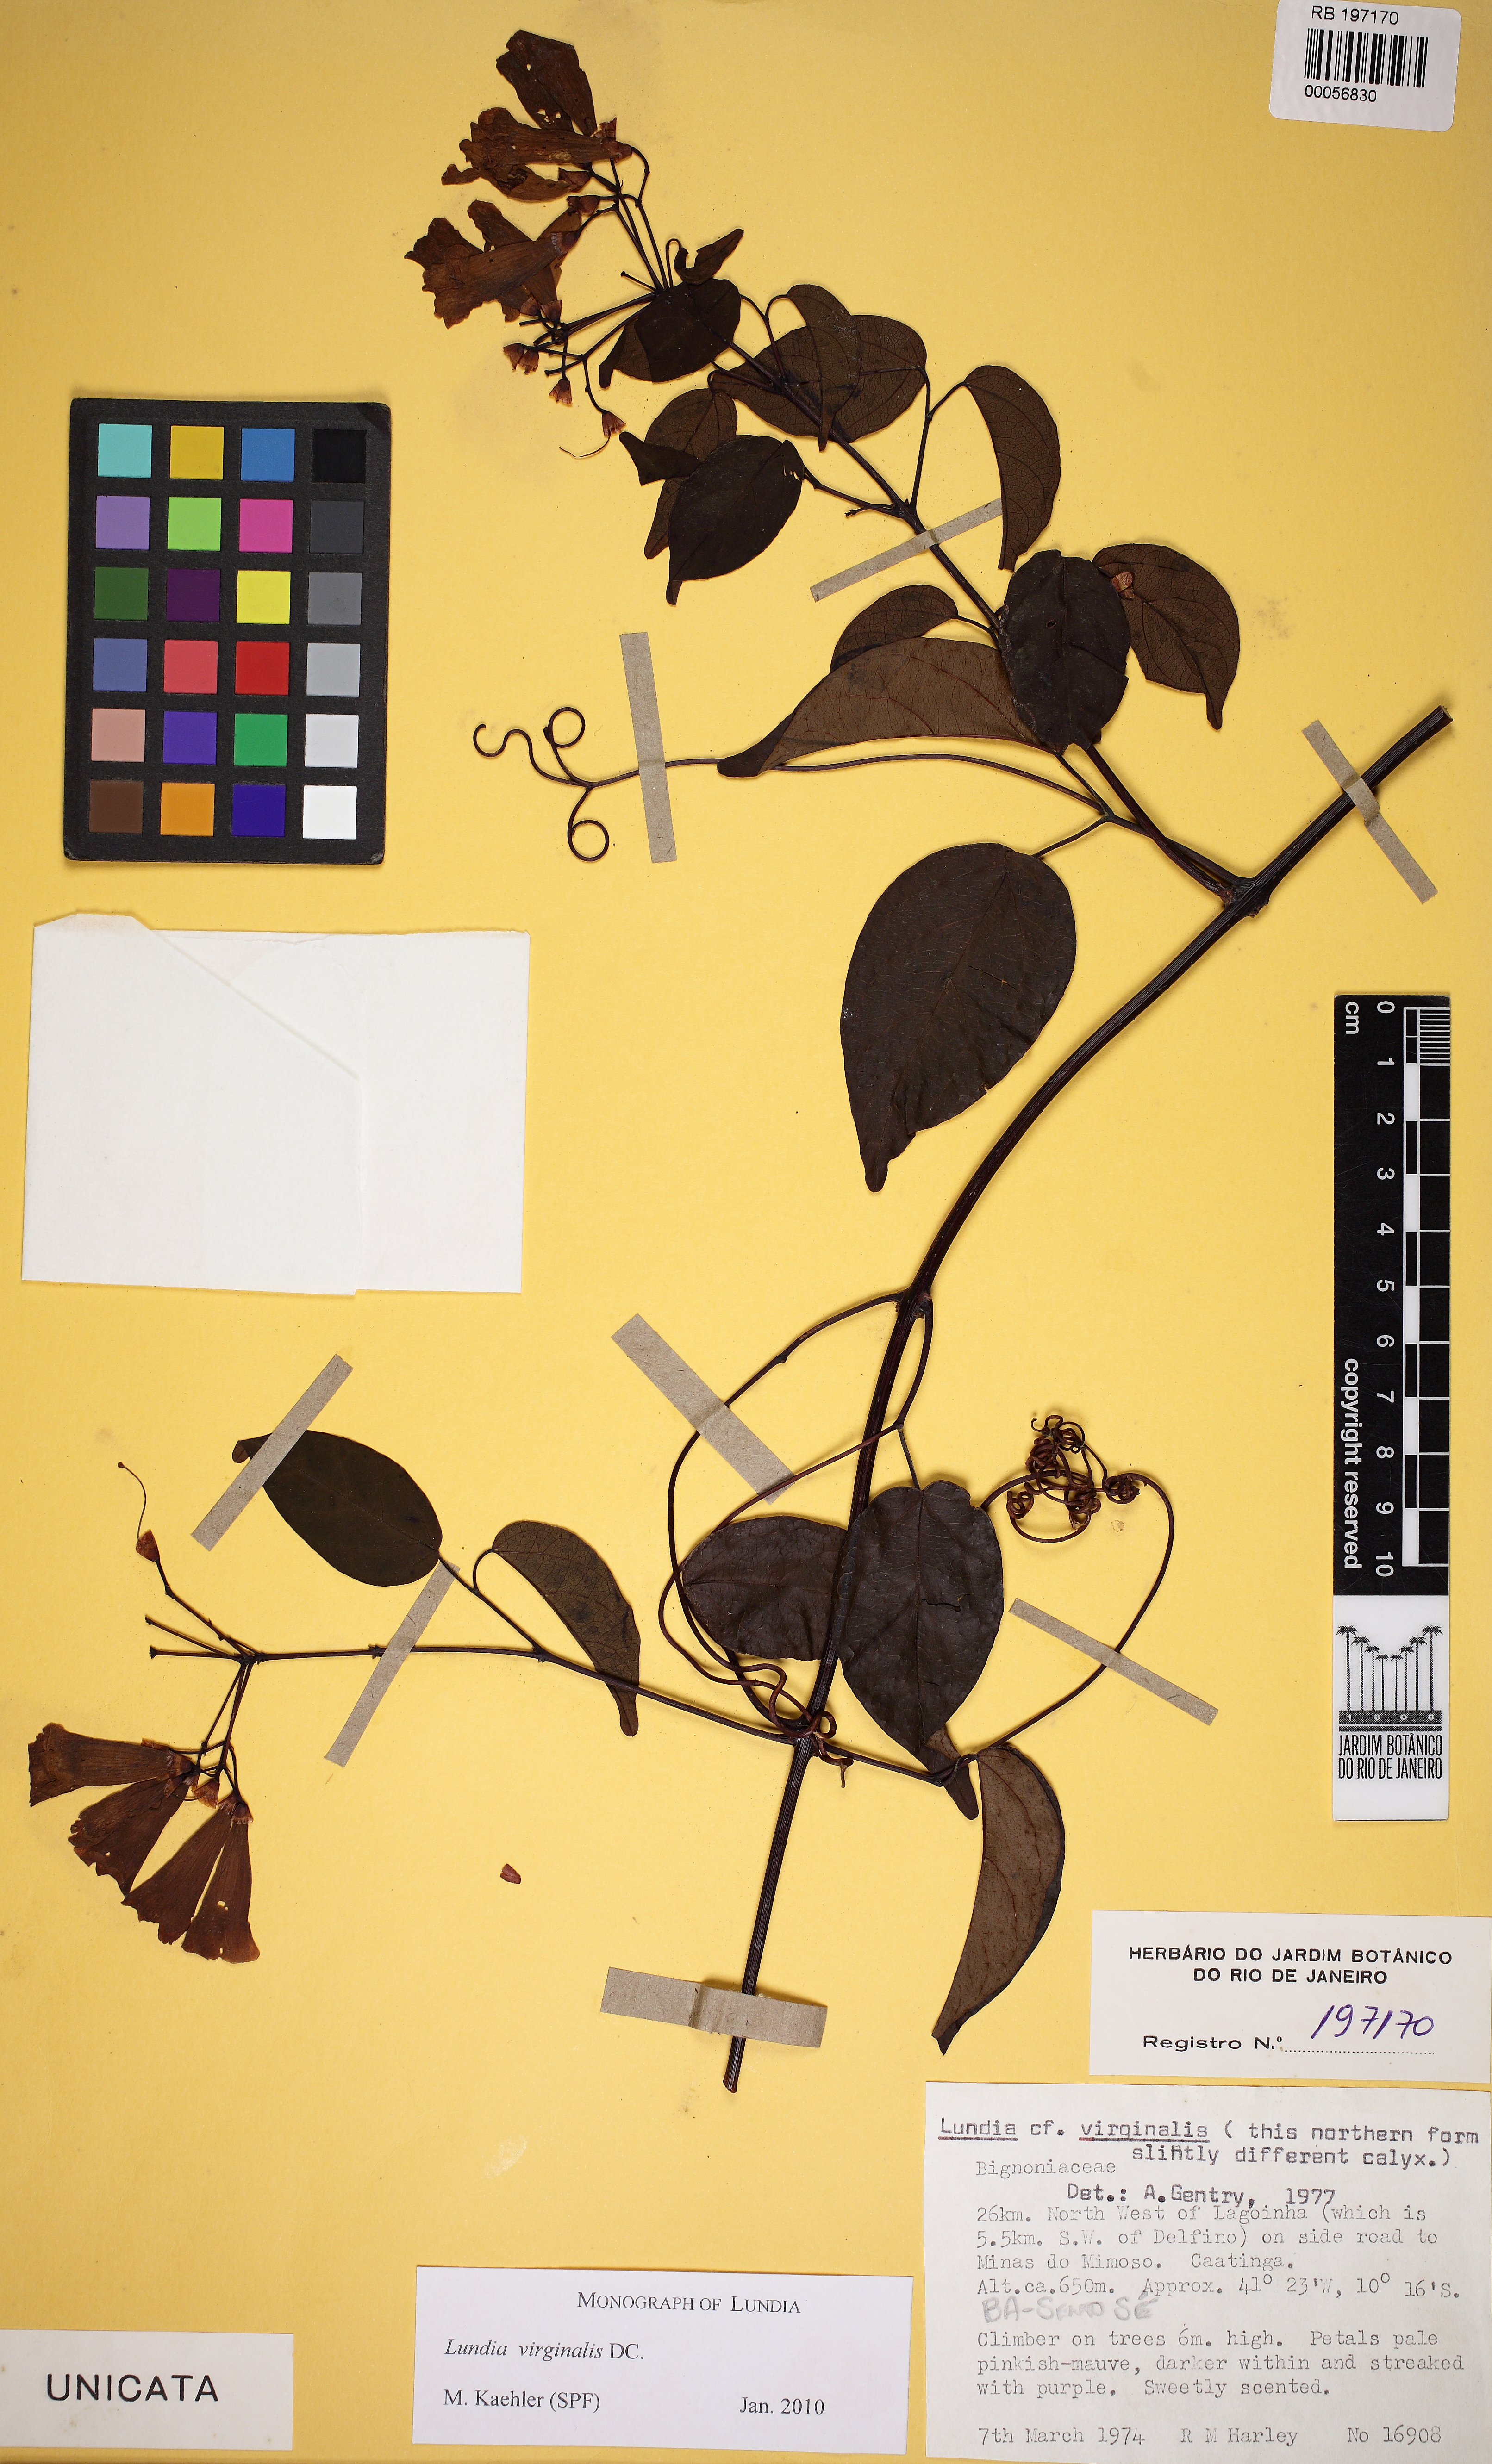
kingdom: Plantae
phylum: Tracheophyta
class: Magnoliopsida
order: Lamiales
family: Bignoniaceae
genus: Lundia
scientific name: Lundia virginalis
